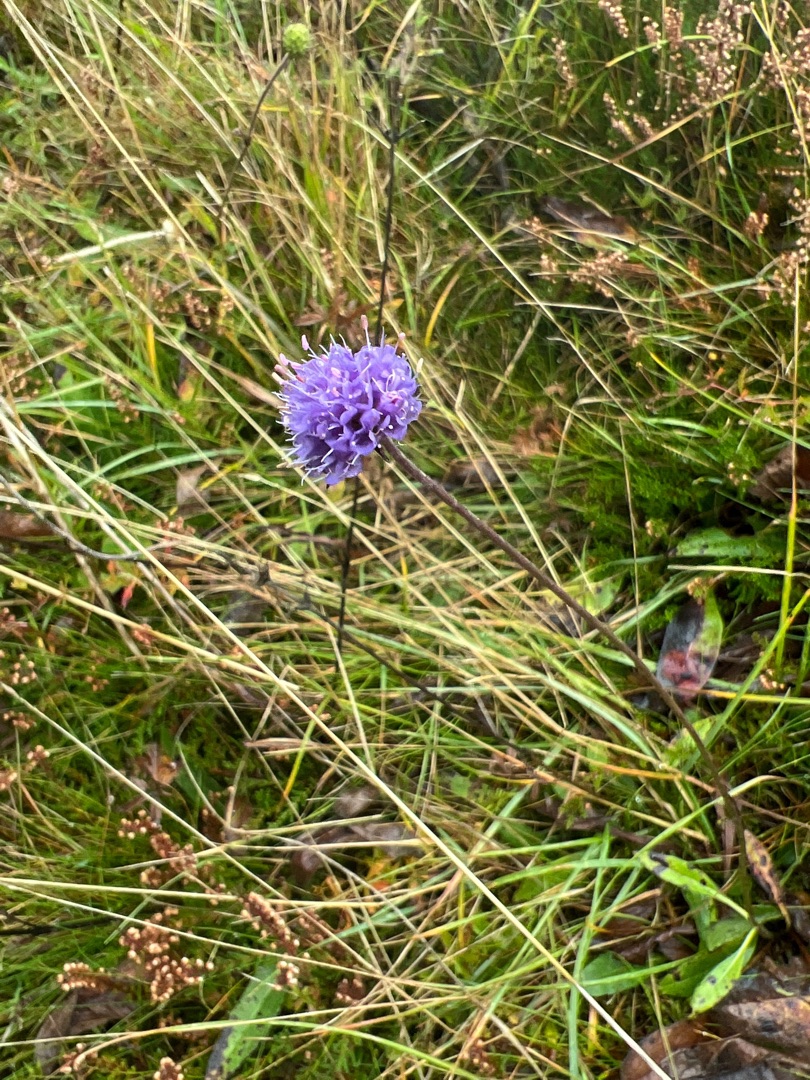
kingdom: Plantae
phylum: Tracheophyta
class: Magnoliopsida
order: Dipsacales
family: Caprifoliaceae
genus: Succisa
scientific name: Succisa pratensis
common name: Djævelsbid
